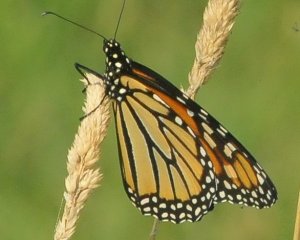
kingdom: Animalia
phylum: Arthropoda
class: Insecta
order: Lepidoptera
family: Nymphalidae
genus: Danaus
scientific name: Danaus plexippus
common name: Monarch
